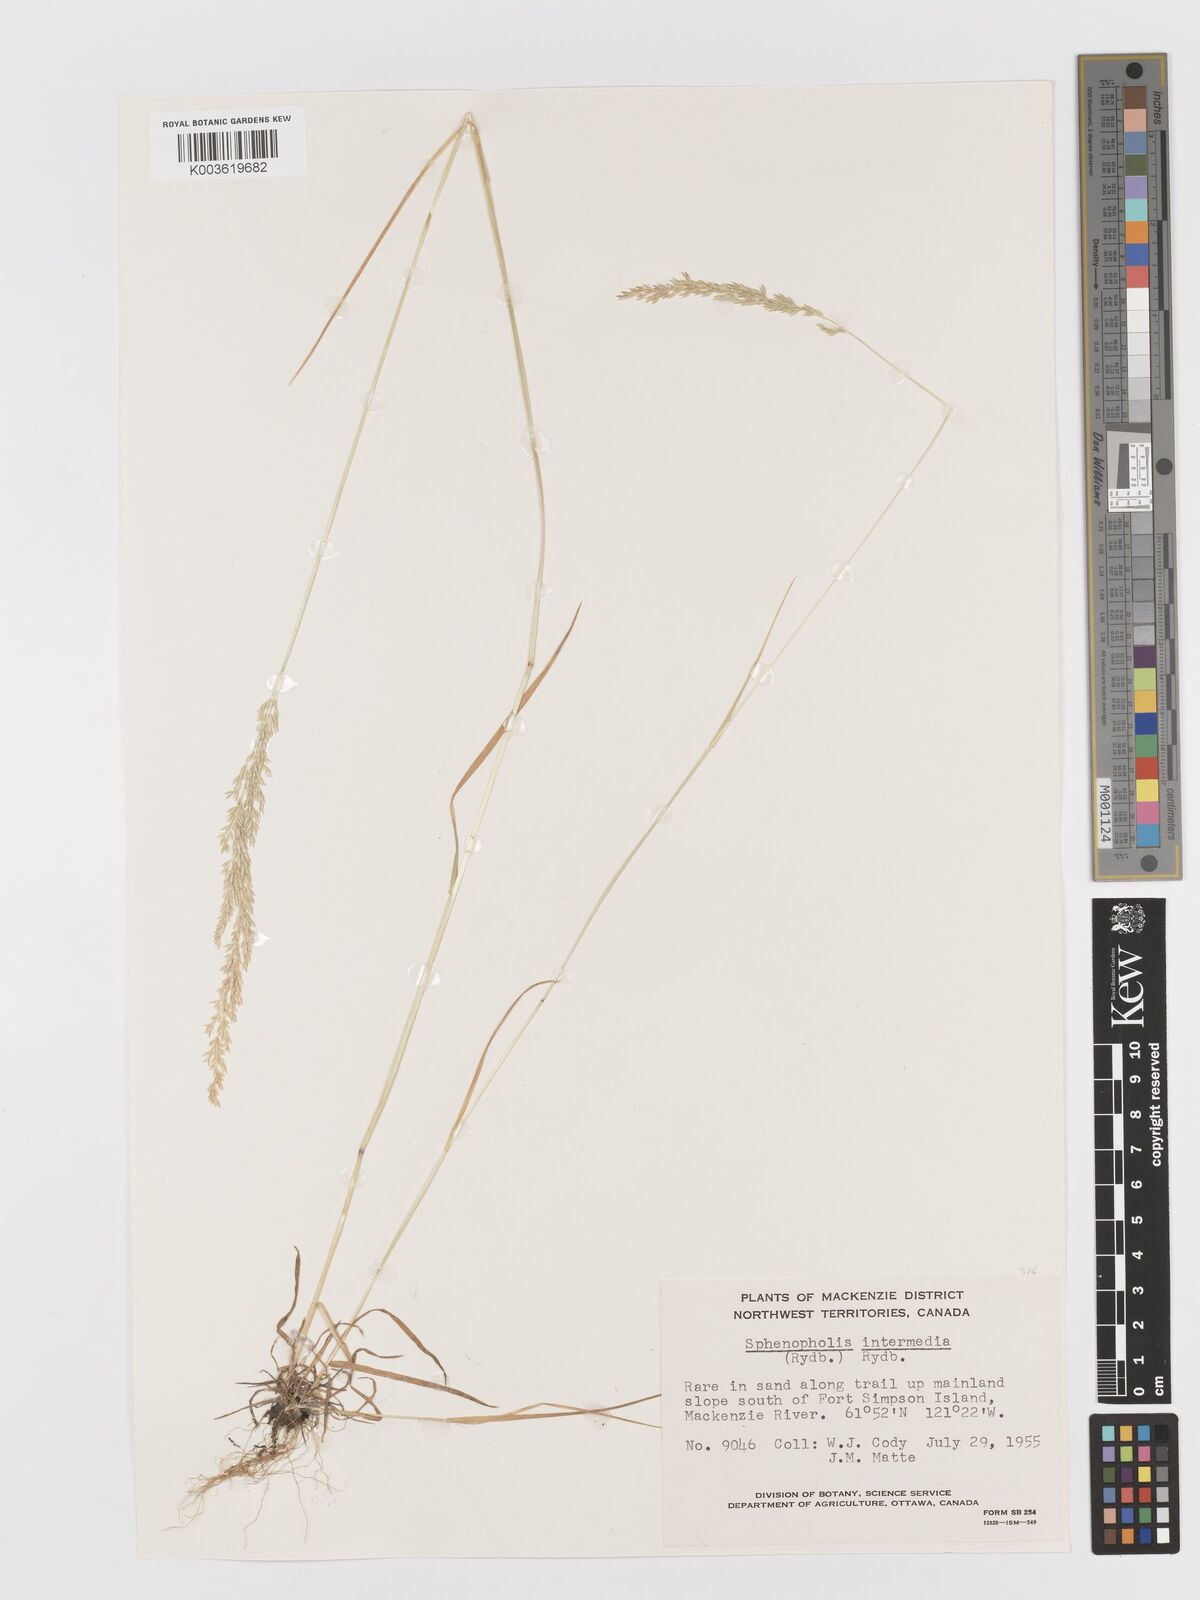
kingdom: Plantae
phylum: Tracheophyta
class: Liliopsida
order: Poales
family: Poaceae
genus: Sphenopholis
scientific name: Sphenopholis obtusata
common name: Prairie grass
